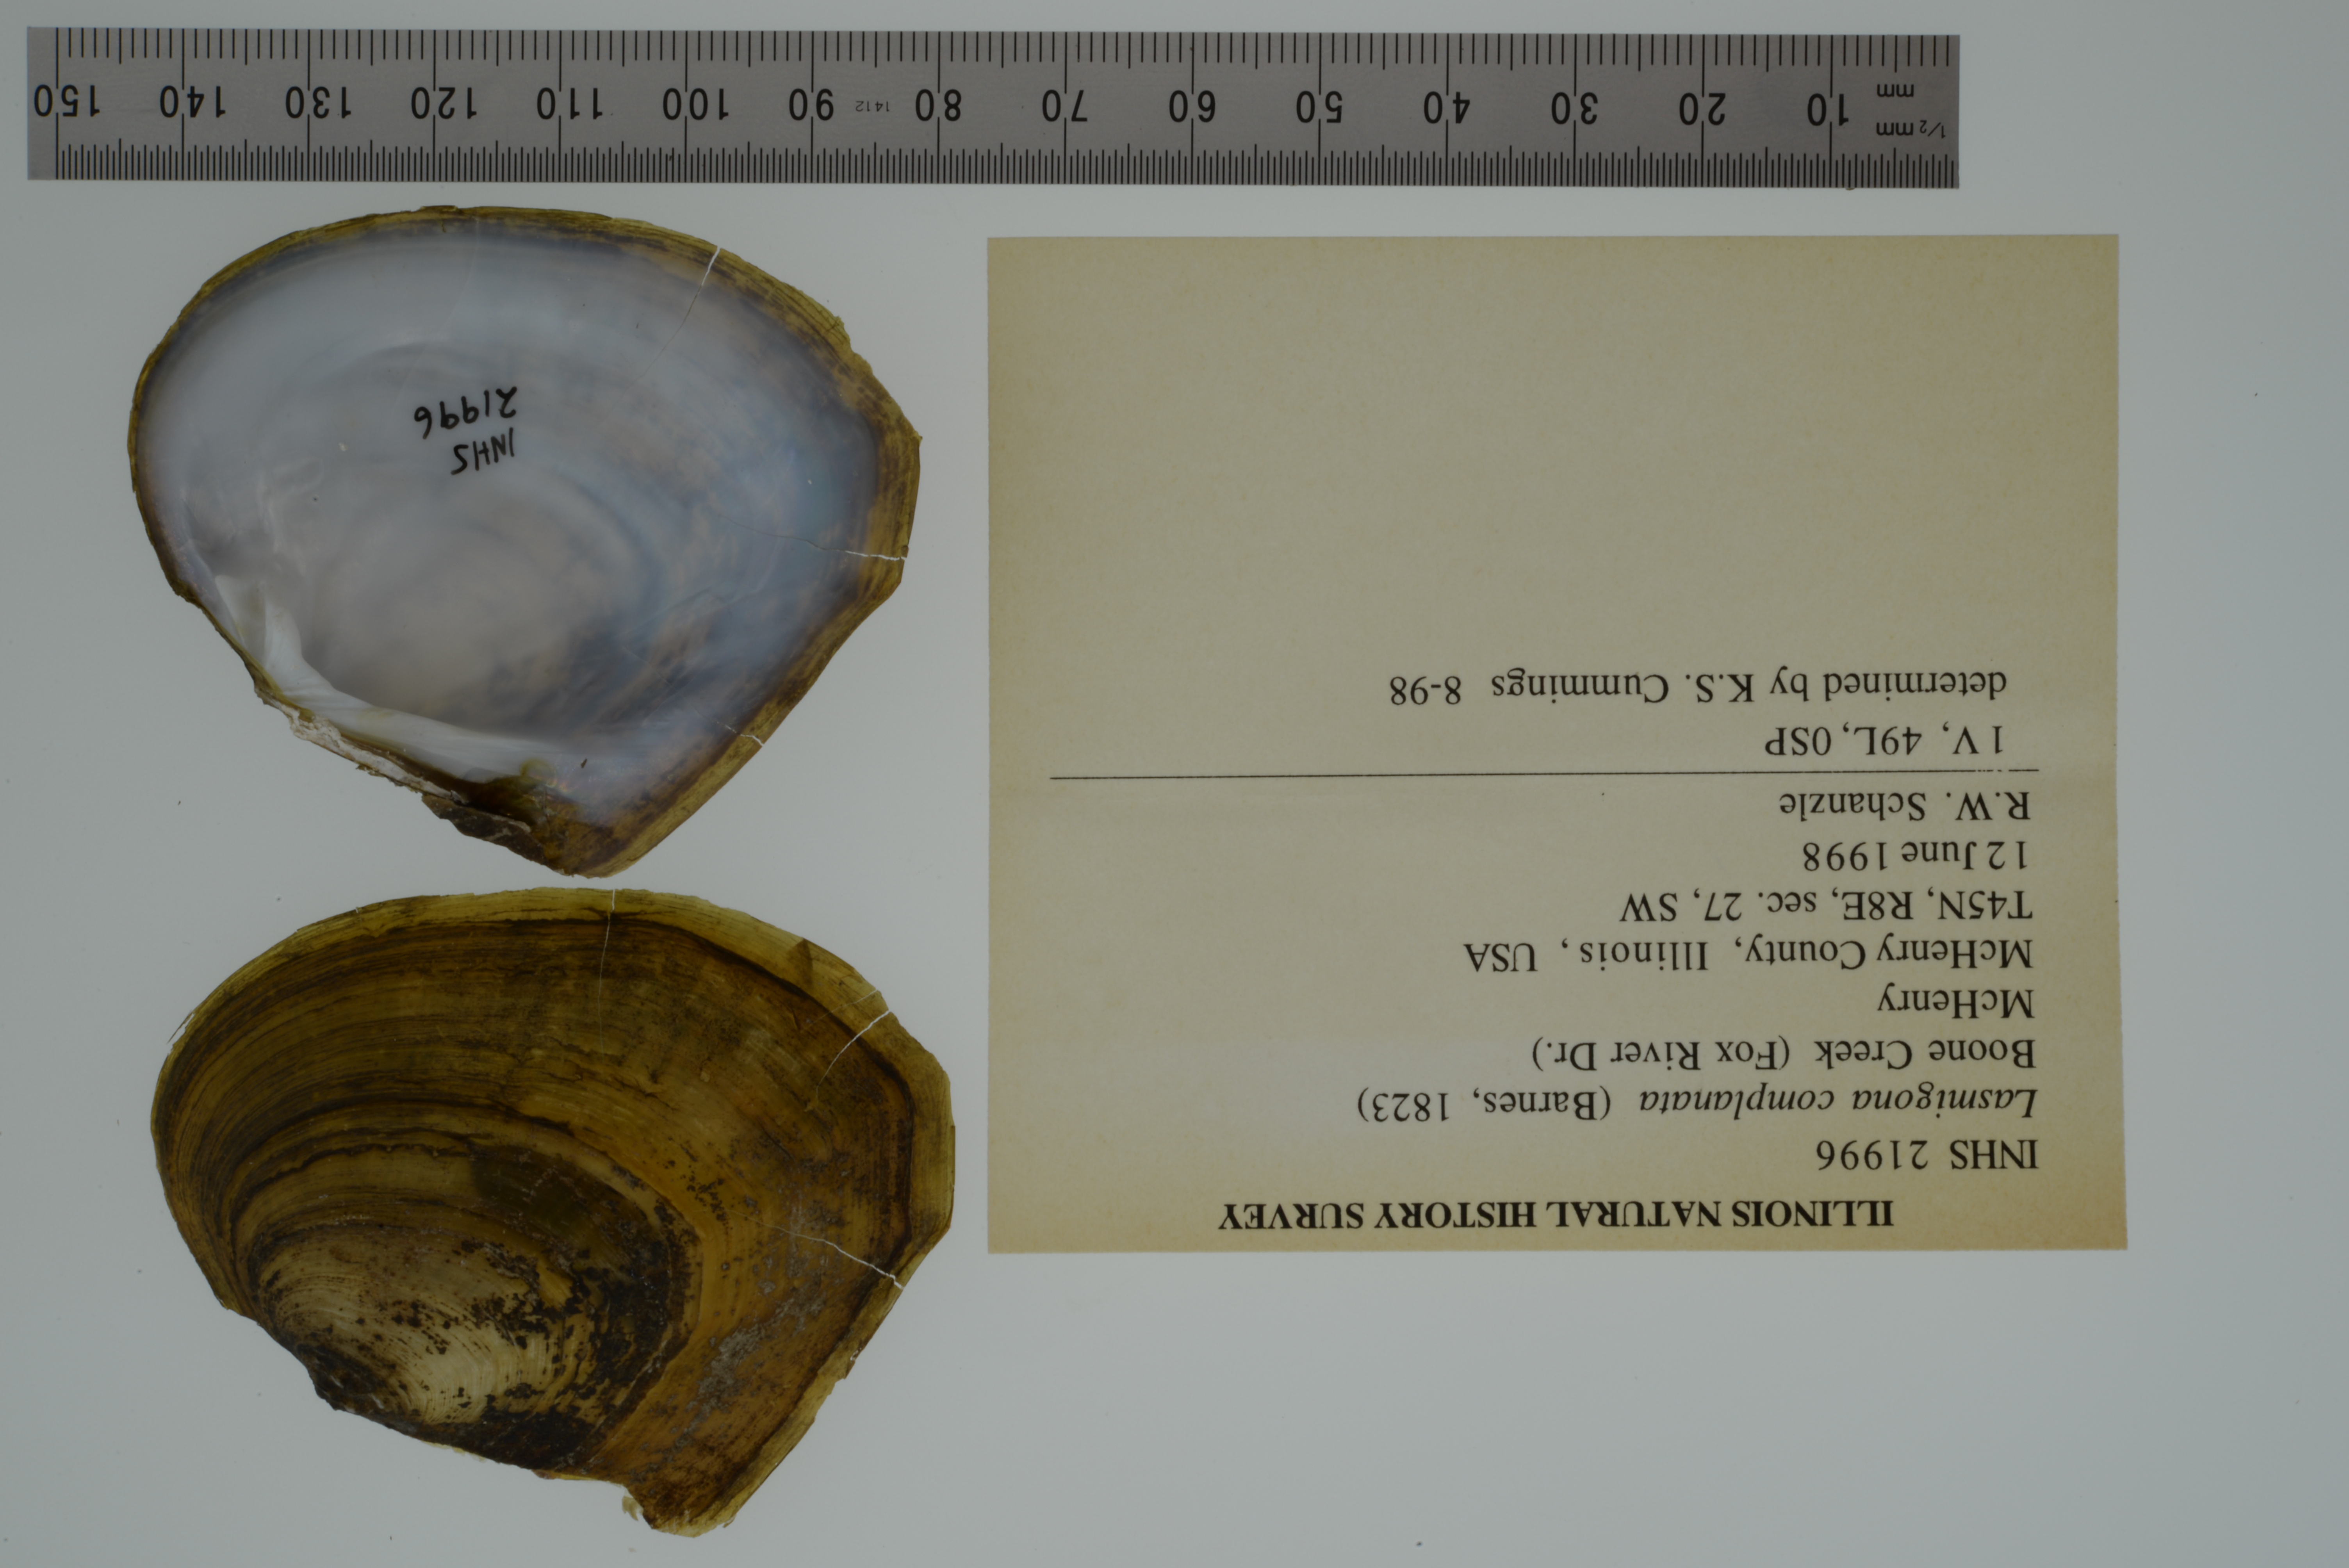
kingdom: Animalia
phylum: Mollusca
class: Bivalvia
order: Unionida
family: Unionidae
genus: Lasmigona
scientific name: Lasmigona complanata
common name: White heelsplitter
